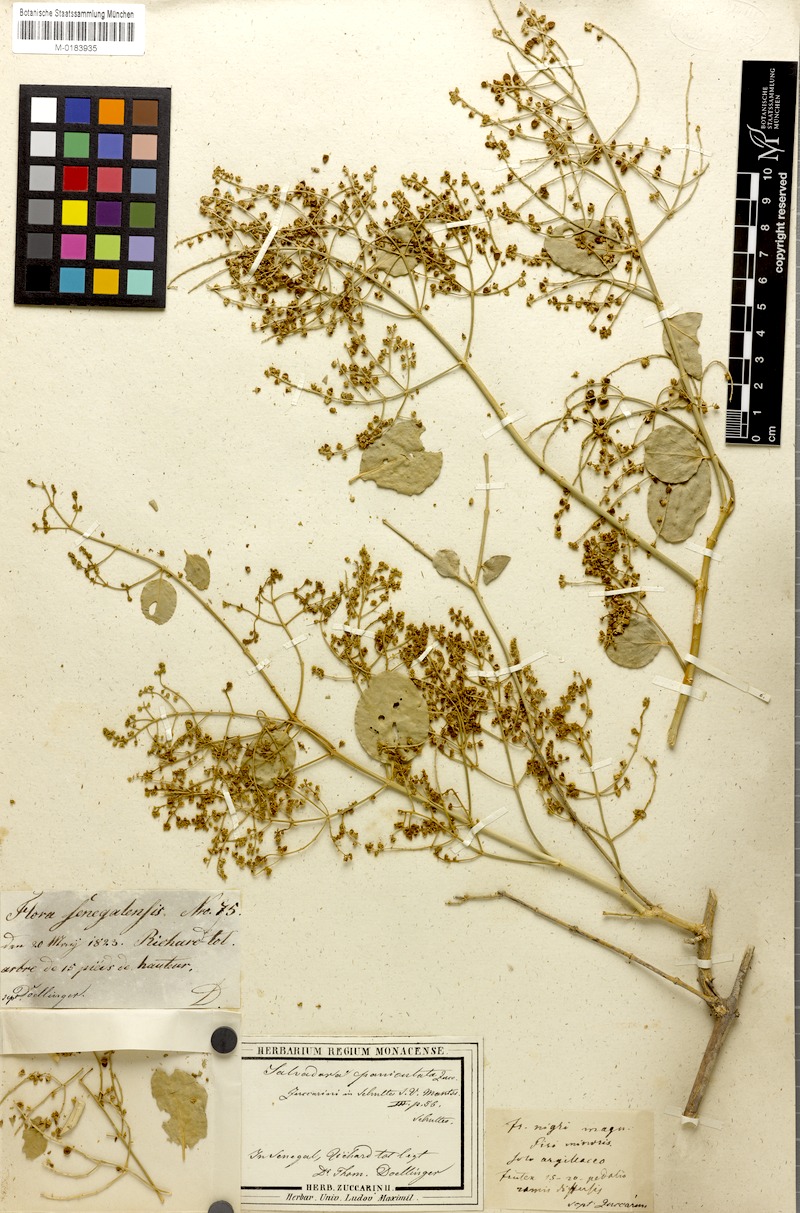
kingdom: Plantae
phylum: Tracheophyta
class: Magnoliopsida
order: Brassicales
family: Salvadoraceae
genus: Salvadora
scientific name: Salvadora persica
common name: Toothbrushtree
